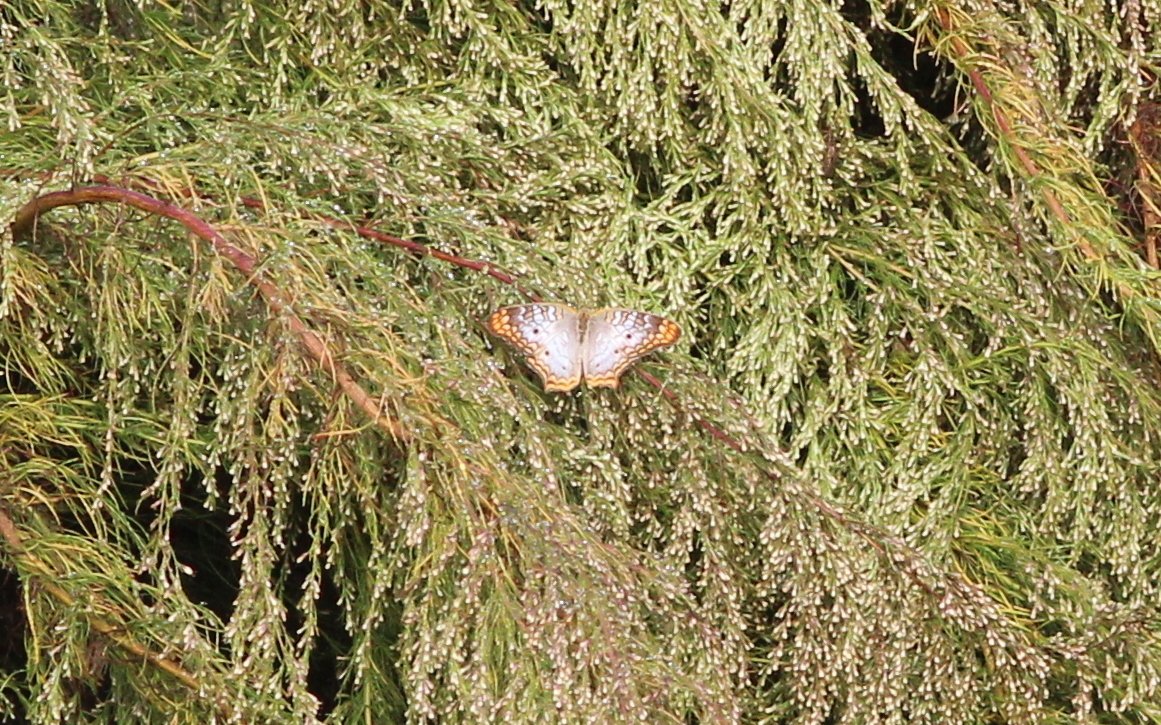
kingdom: Animalia
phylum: Arthropoda
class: Insecta
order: Lepidoptera
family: Nymphalidae
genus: Anartia
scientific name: Anartia jatrophae
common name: White Peacock
